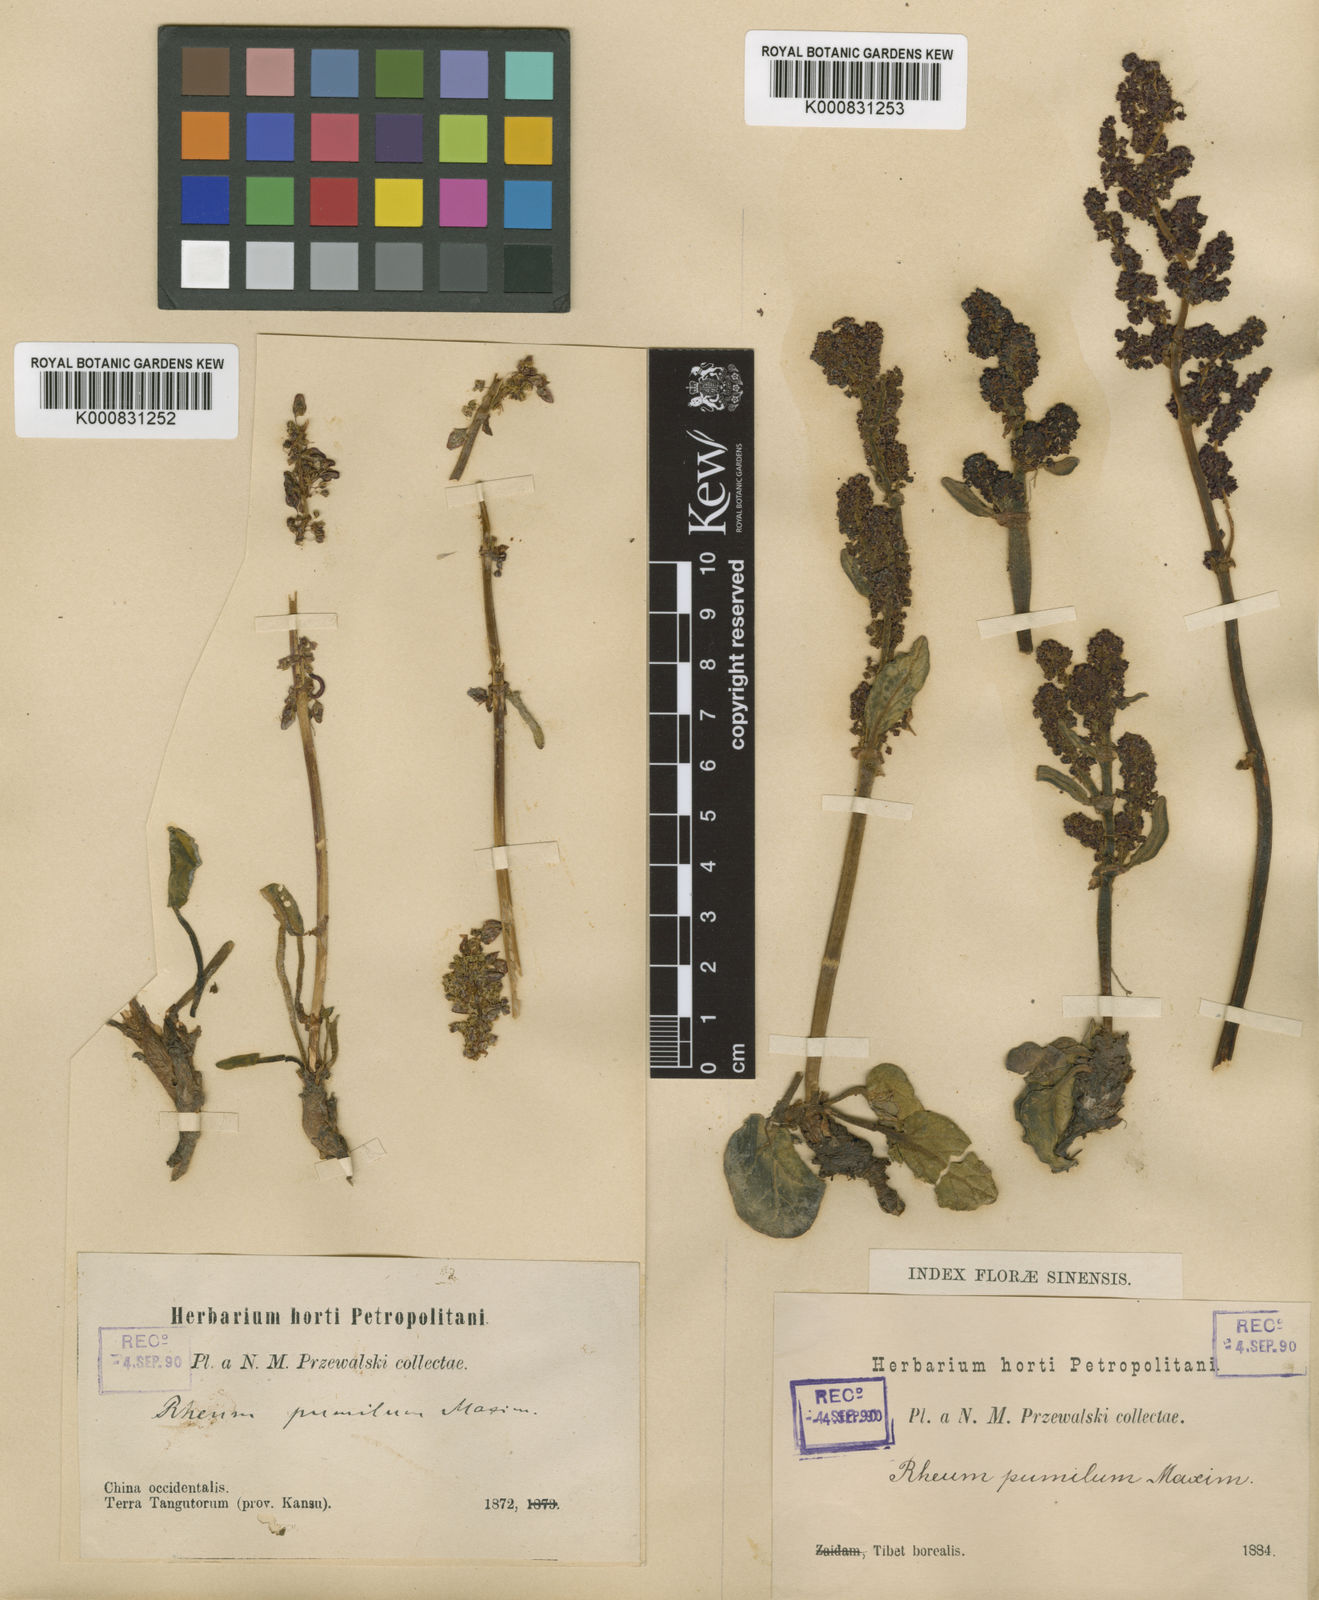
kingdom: Plantae
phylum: Tracheophyta
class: Magnoliopsida
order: Caryophyllales
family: Polygonaceae
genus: Rheum
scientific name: Rheum pumilum
